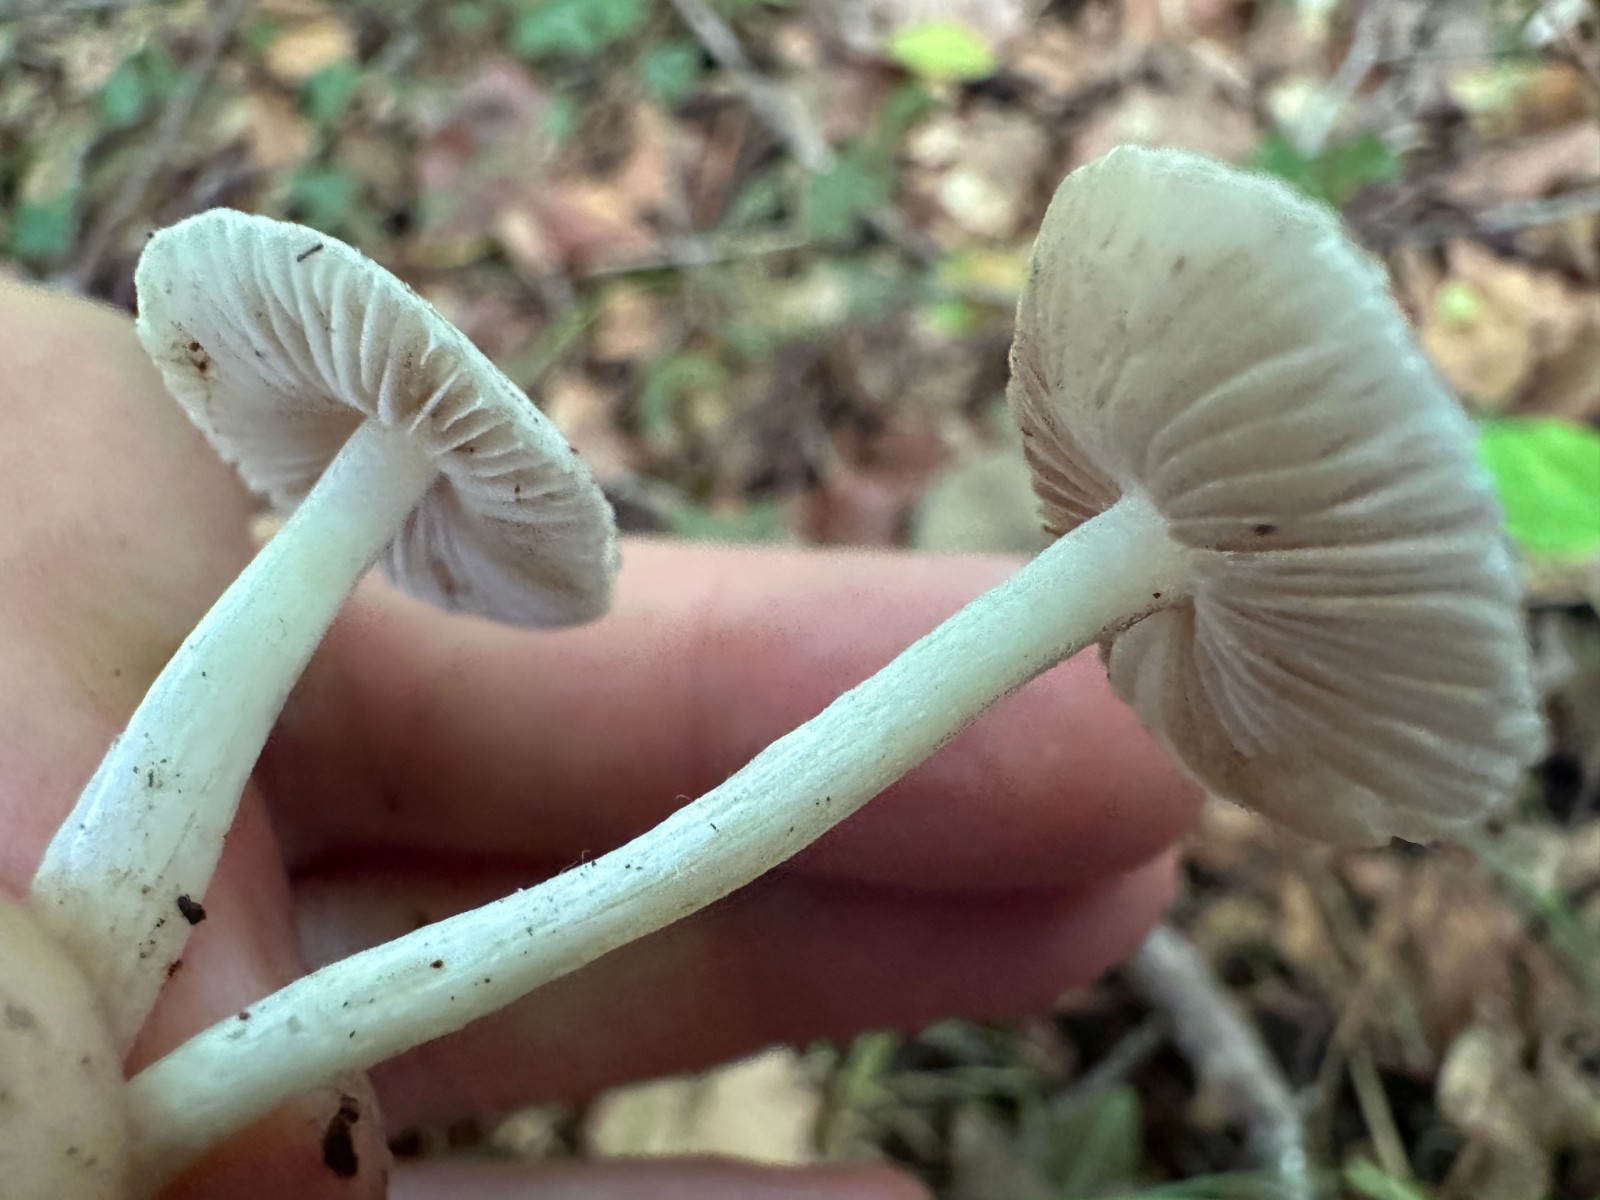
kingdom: Fungi
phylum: Basidiomycota
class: Agaricomycetes
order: Agaricales
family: Inocybaceae
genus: Inocybe
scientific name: Inocybe
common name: trævlhat
